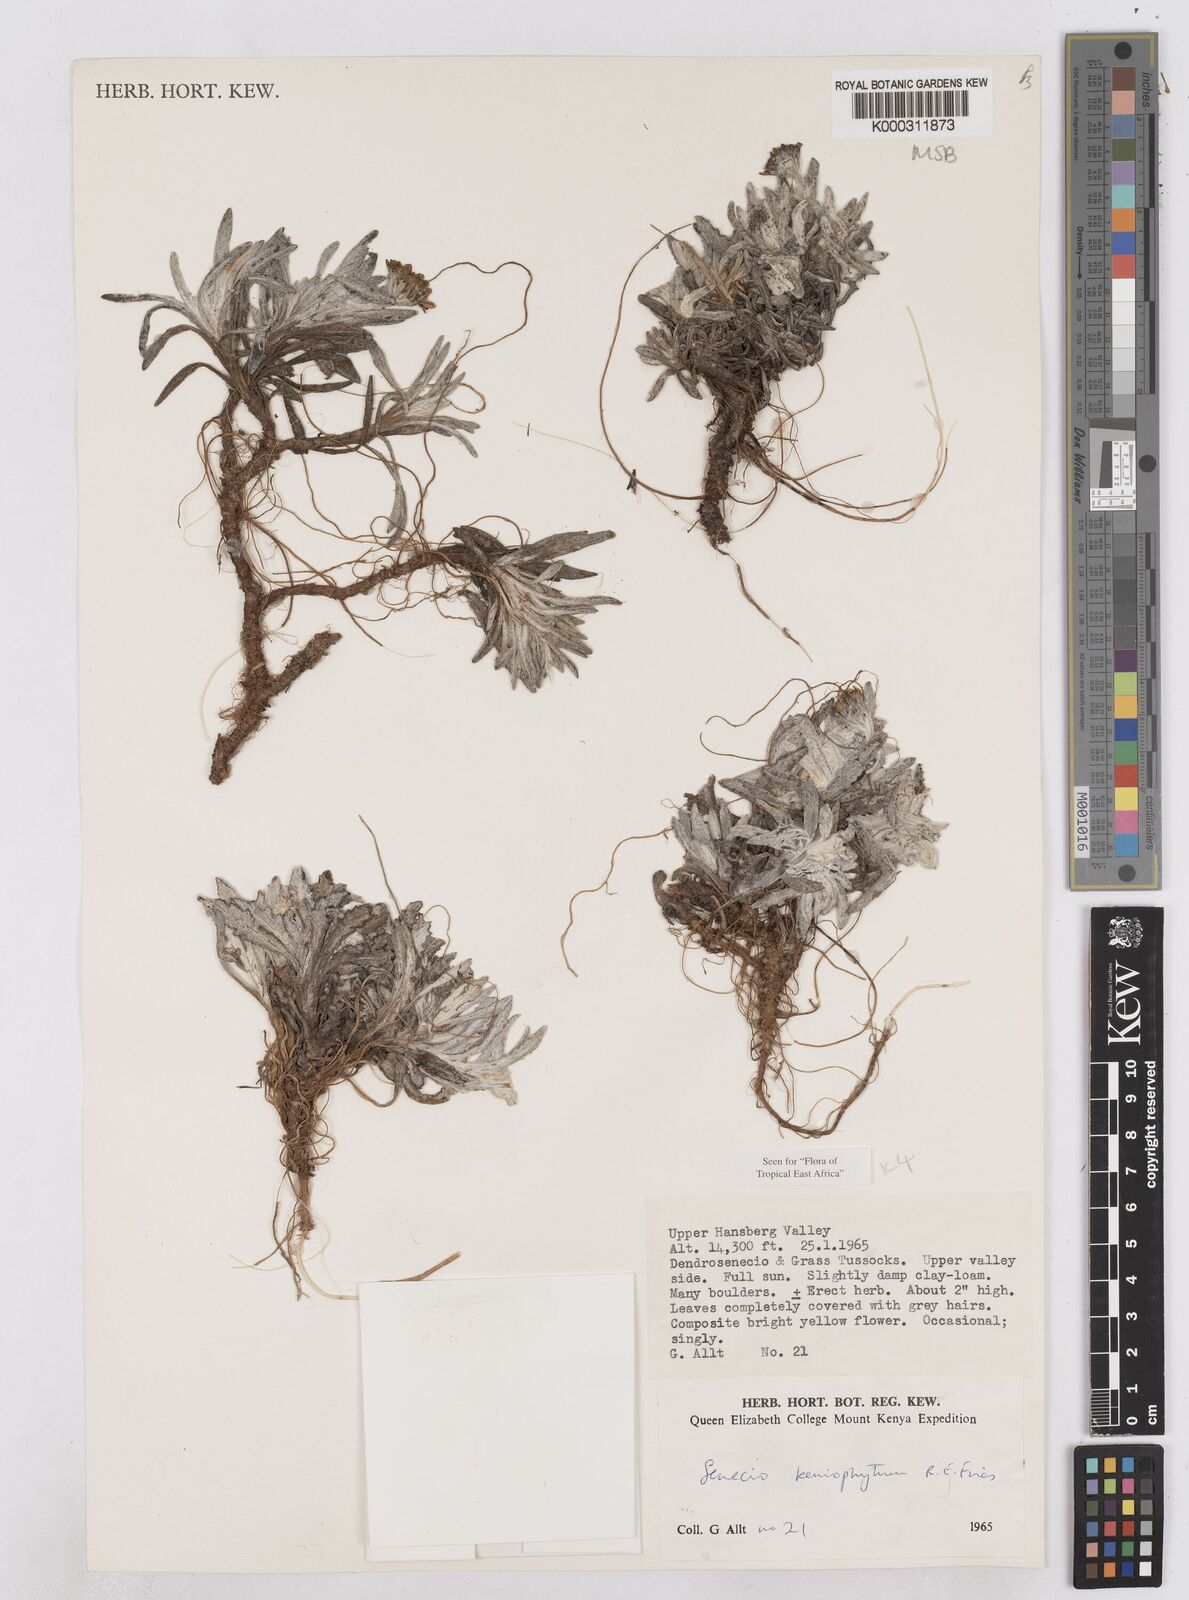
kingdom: Plantae
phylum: Tracheophyta
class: Magnoliopsida
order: Asterales
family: Asteraceae
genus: Senecio
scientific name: Senecio keniophytum
